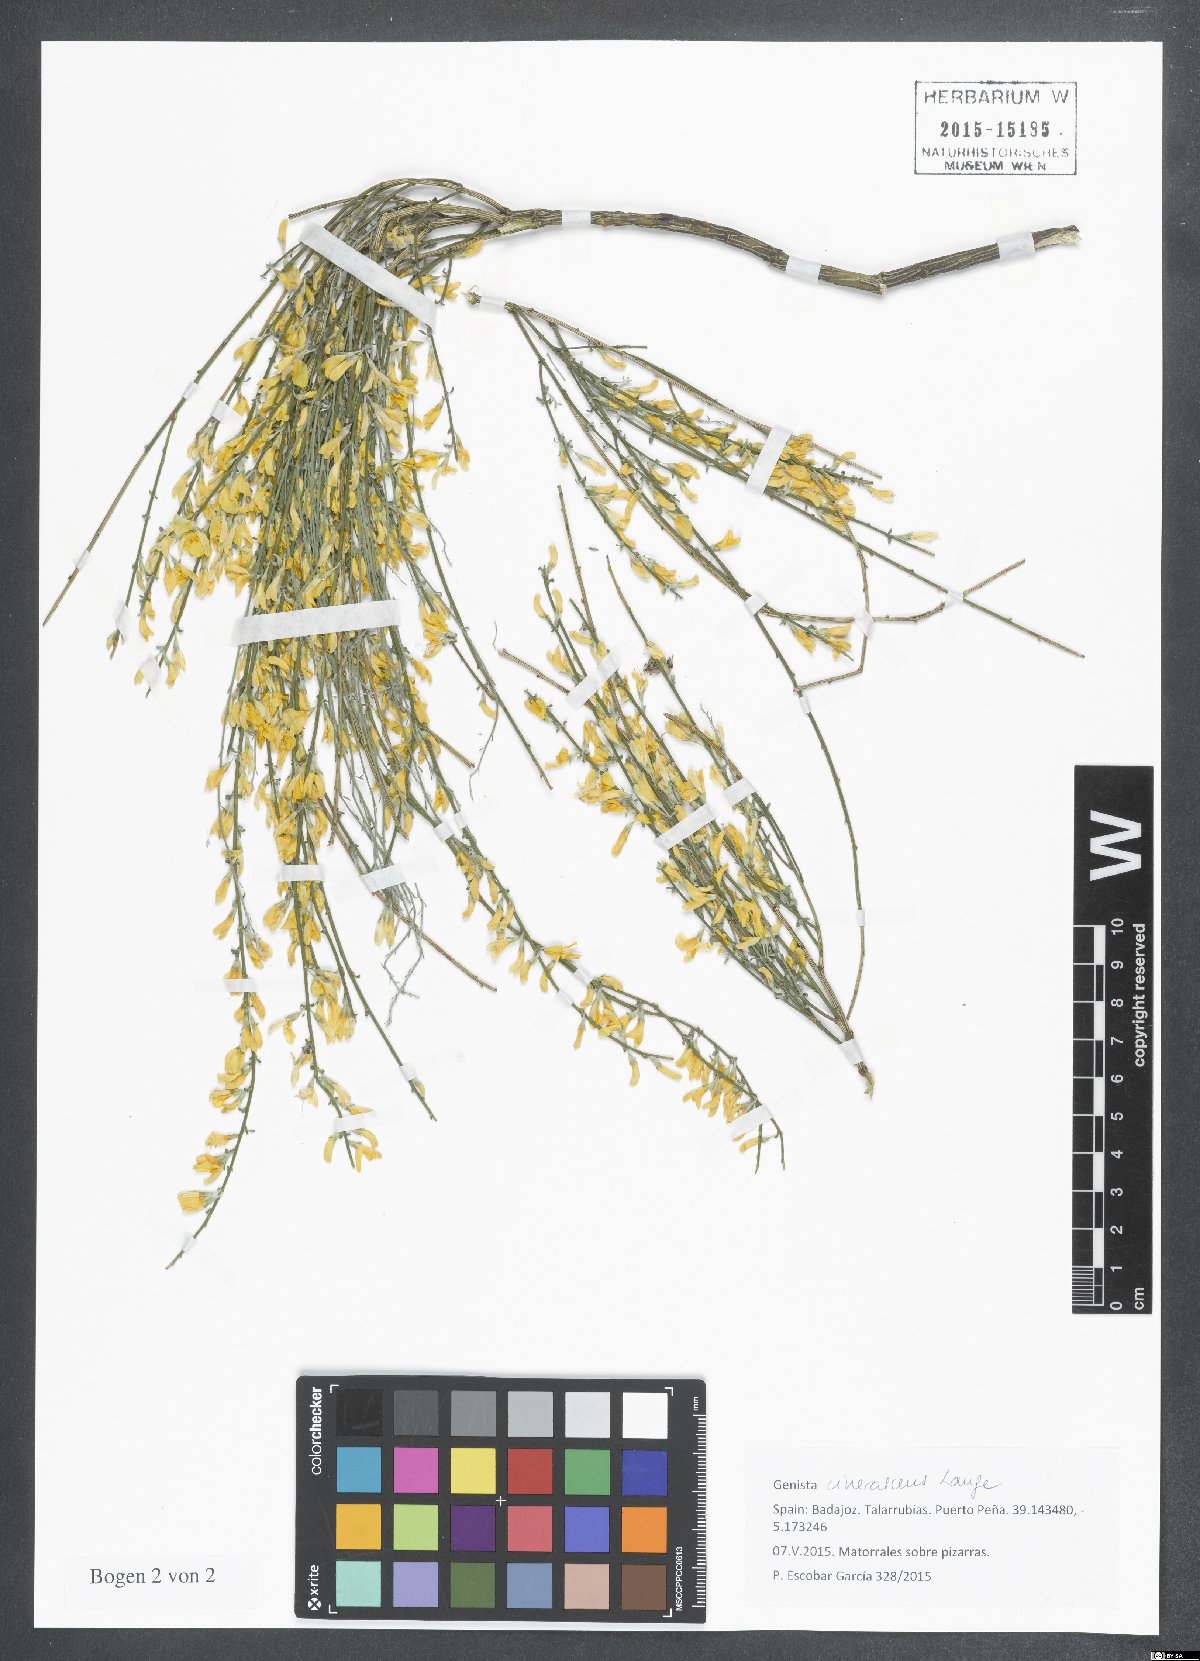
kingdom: Plantae
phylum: Tracheophyta
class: Magnoliopsida
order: Fabales
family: Fabaceae
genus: Genista
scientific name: Genista cinerascens
